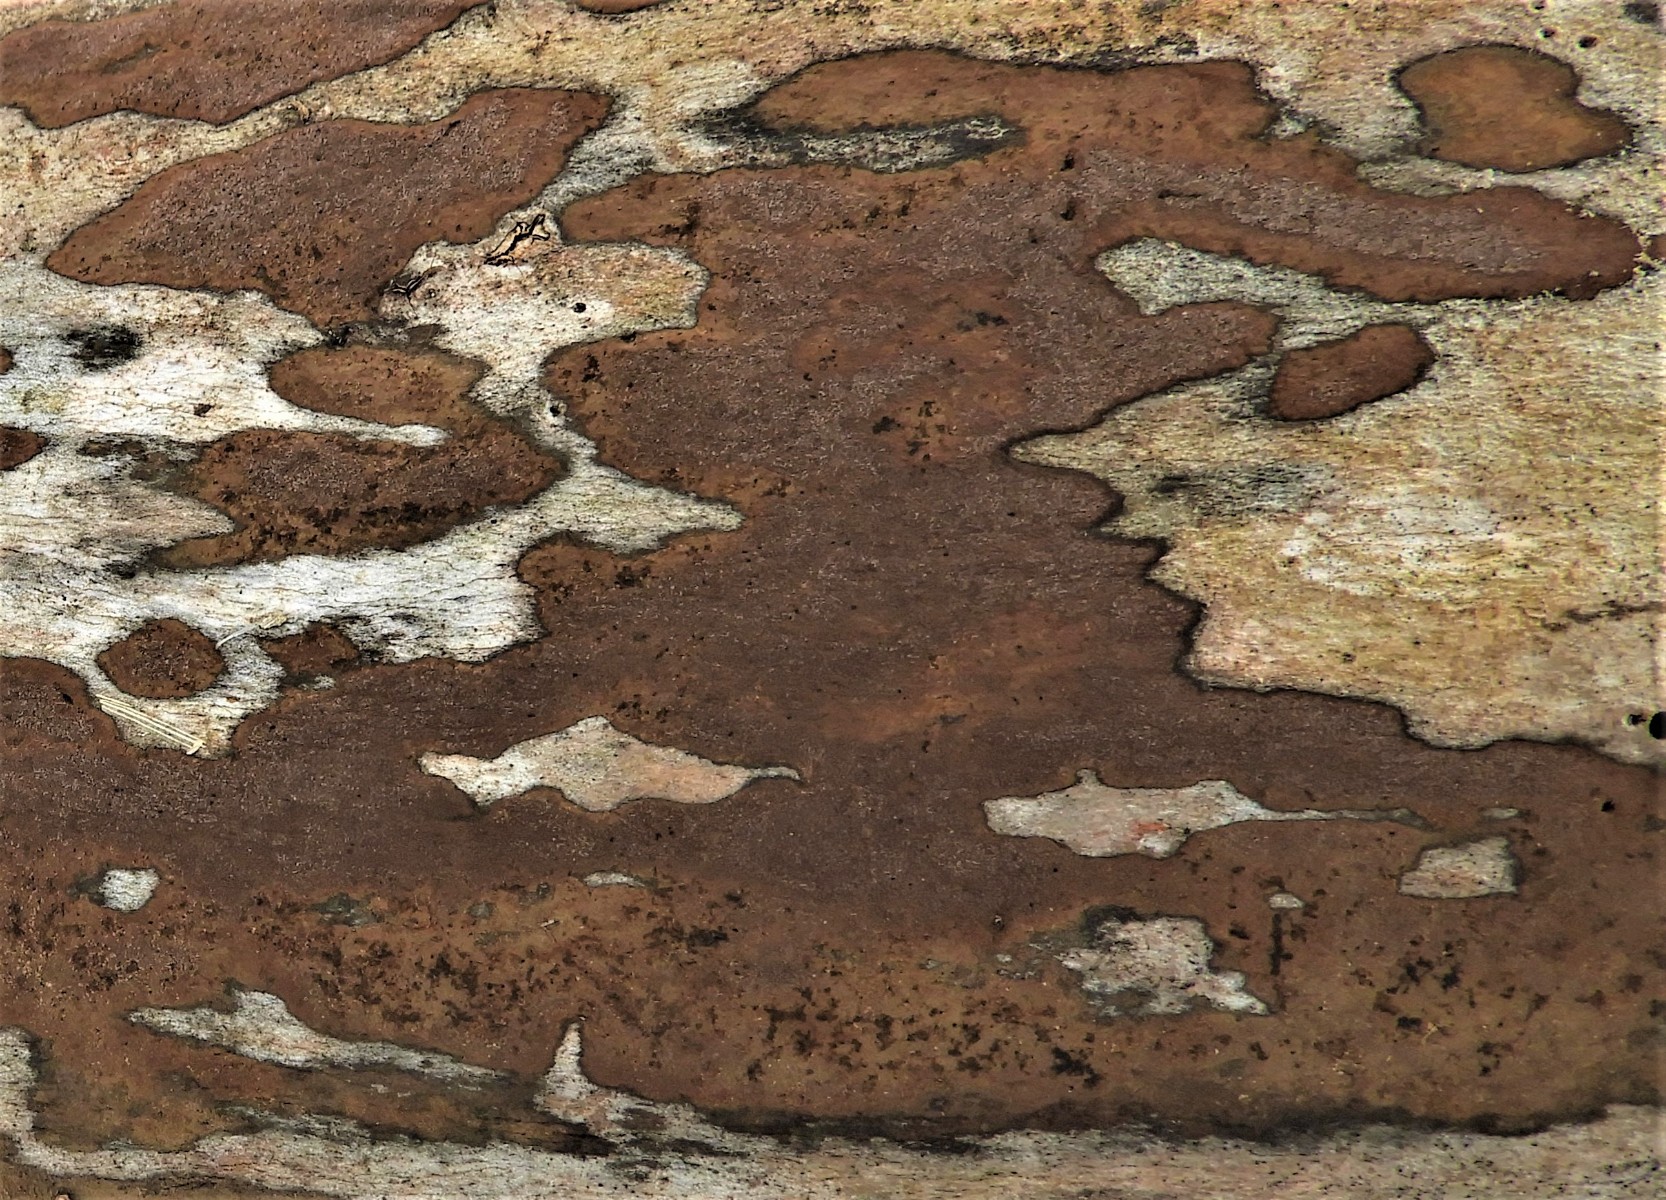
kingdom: Fungi
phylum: Ascomycota
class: Sordariomycetes
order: Xylariales
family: Hypoxylaceae
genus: Hypoxylon
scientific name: Hypoxylon petriniae
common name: nedsænket kulbær
